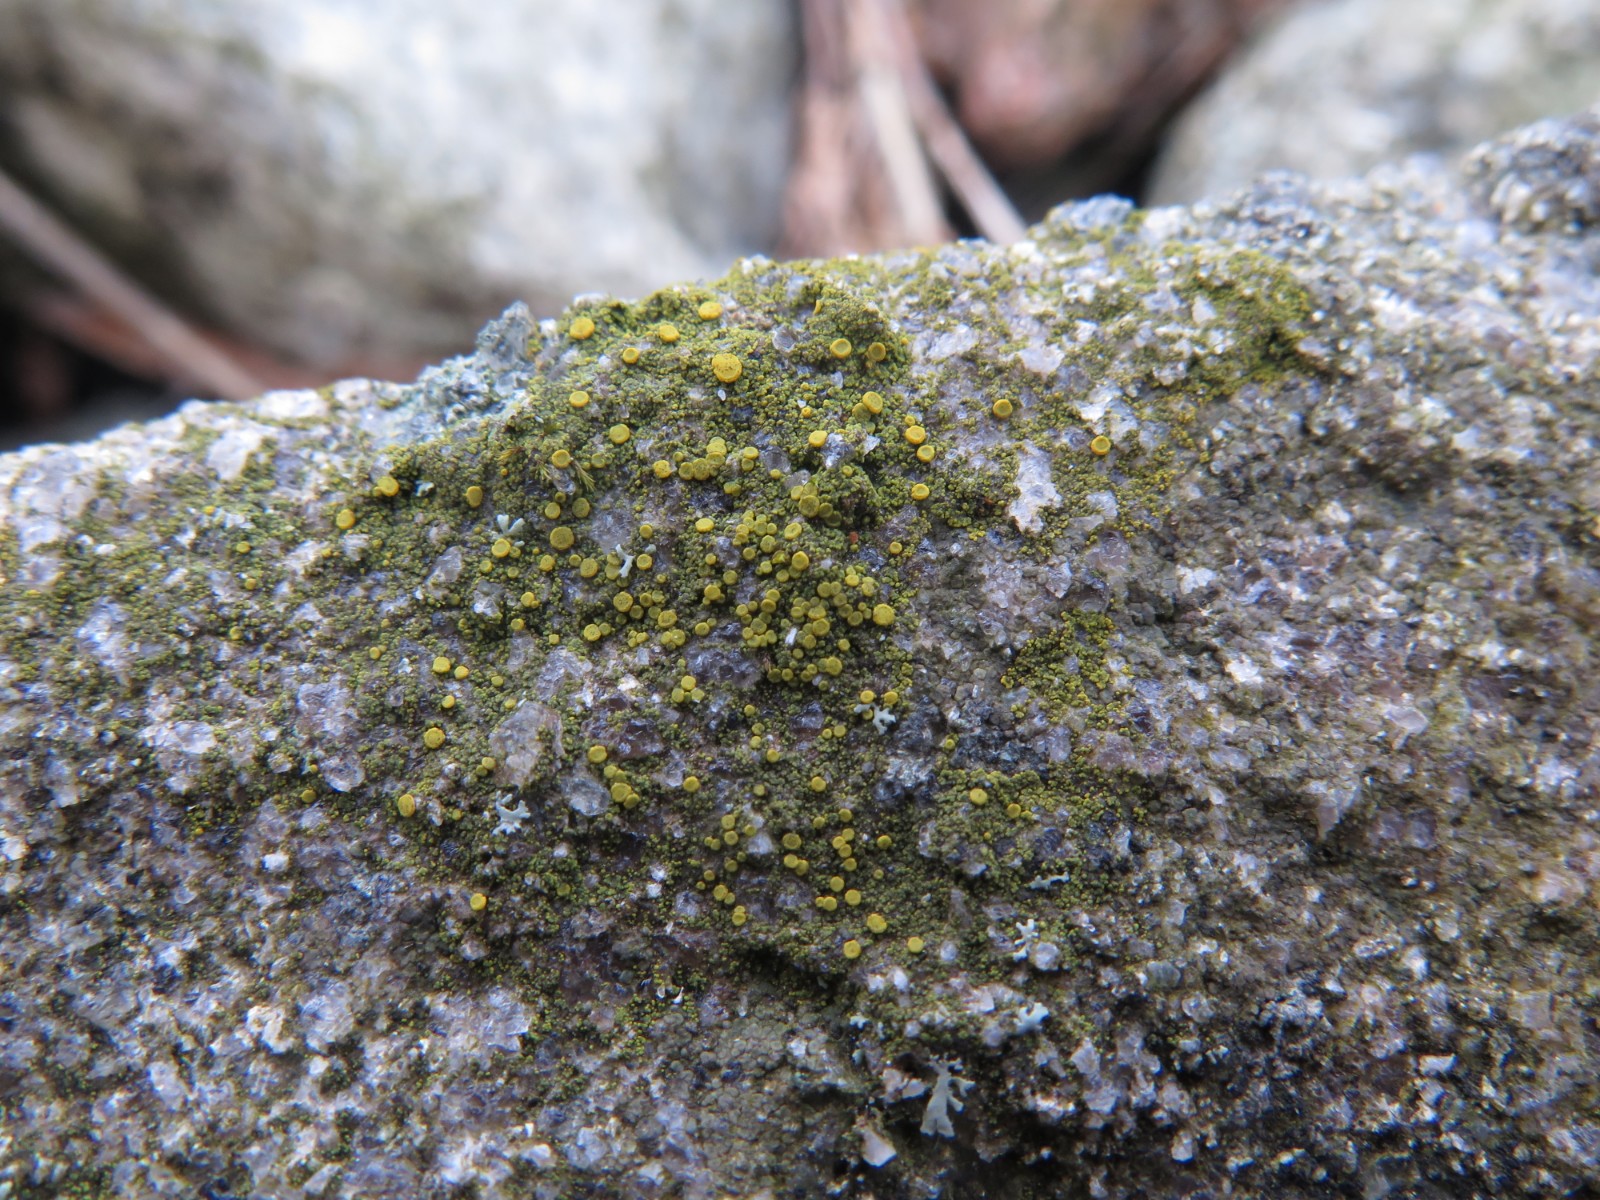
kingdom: Fungi
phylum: Ascomycota
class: Candelariomycetes
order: Candelariales
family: Candelariaceae
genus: Candelariella
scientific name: Candelariella vitellina
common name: almindelig æggeblommelav
